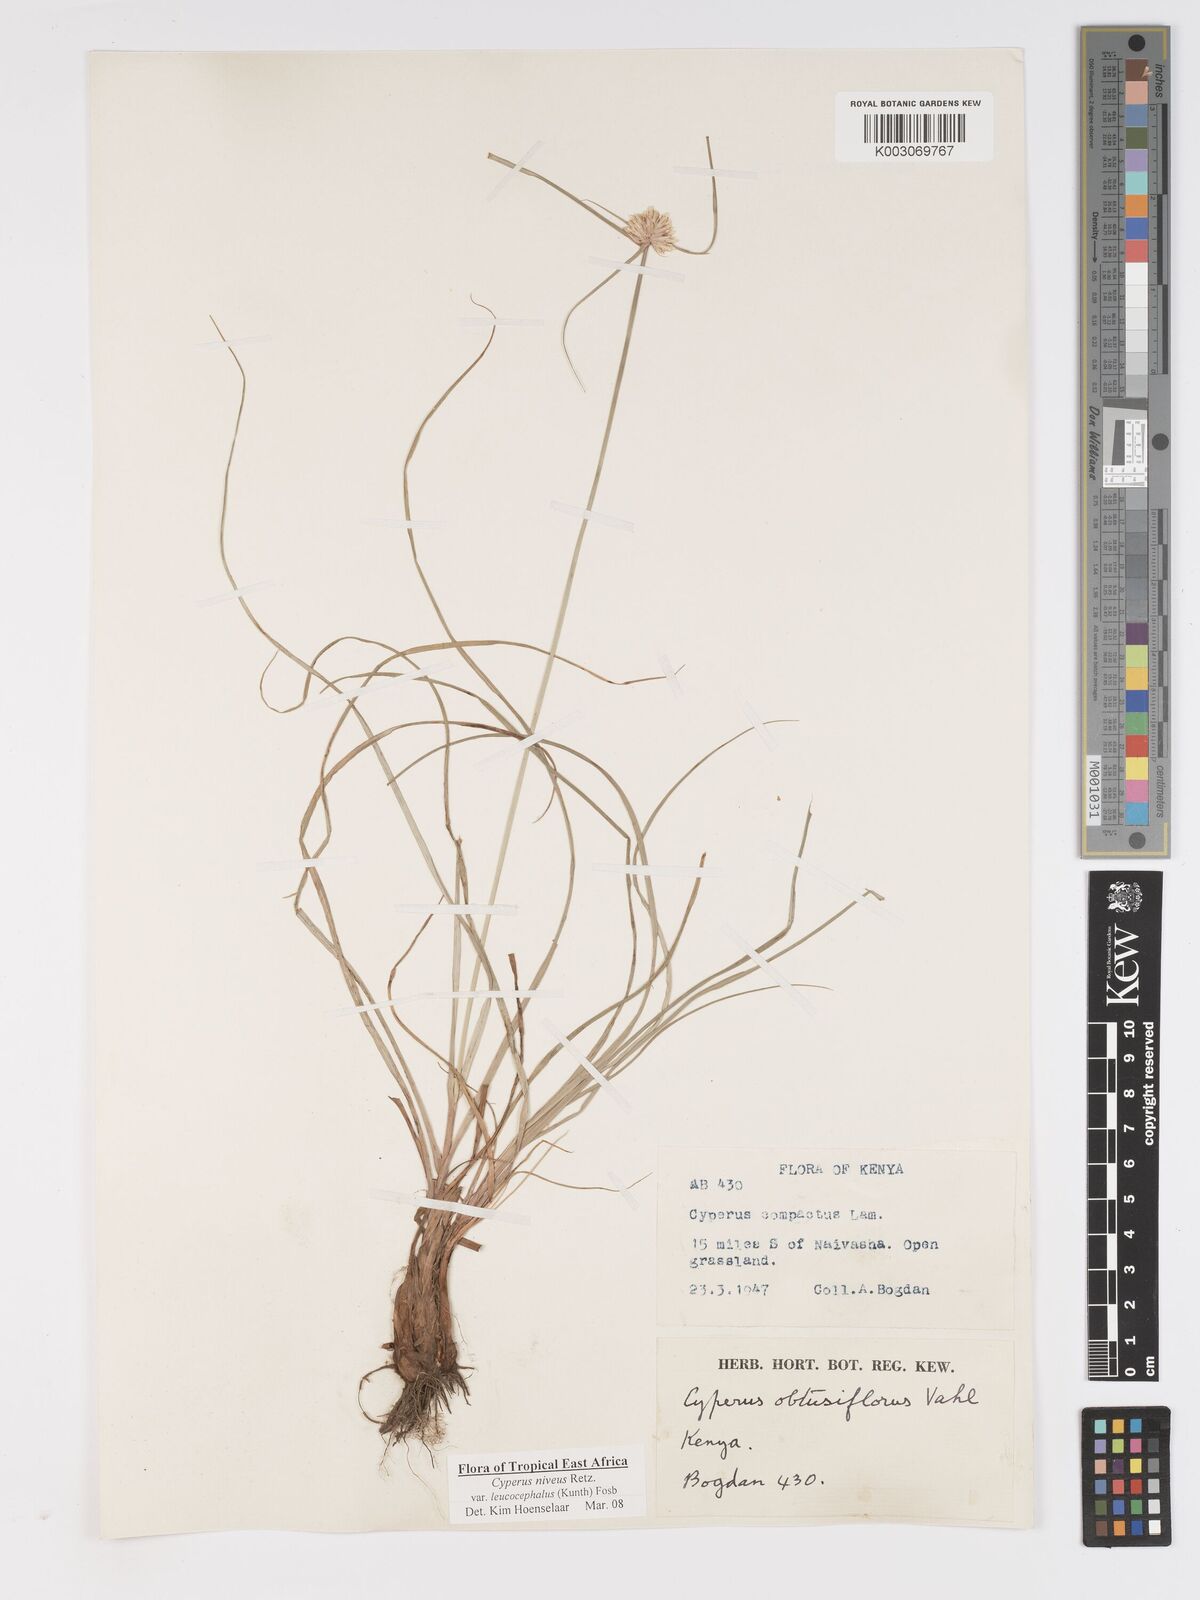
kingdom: Plantae
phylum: Tracheophyta
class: Liliopsida
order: Poales
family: Cyperaceae
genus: Cyperus
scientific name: Cyperus niveus
